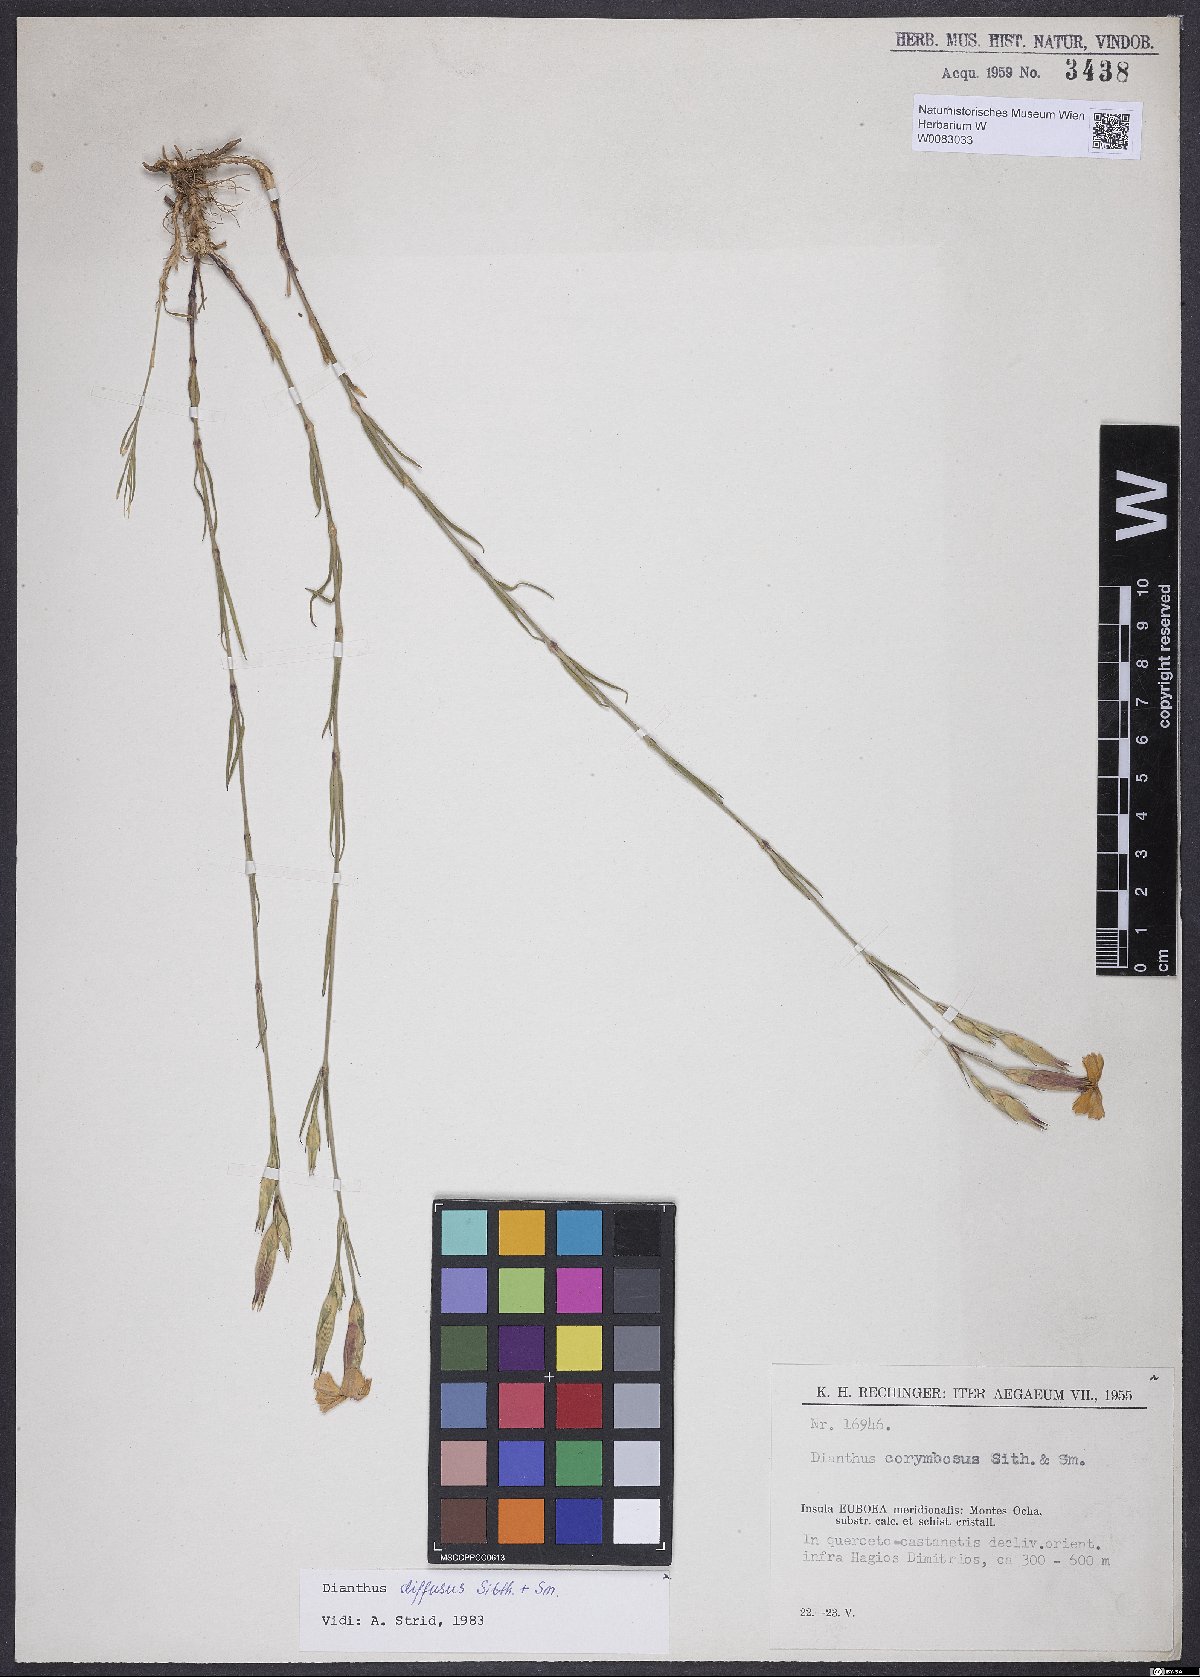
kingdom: Plantae
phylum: Tracheophyta
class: Magnoliopsida
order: Caryophyllales
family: Caryophyllaceae
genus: Dianthus
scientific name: Dianthus diffusus
